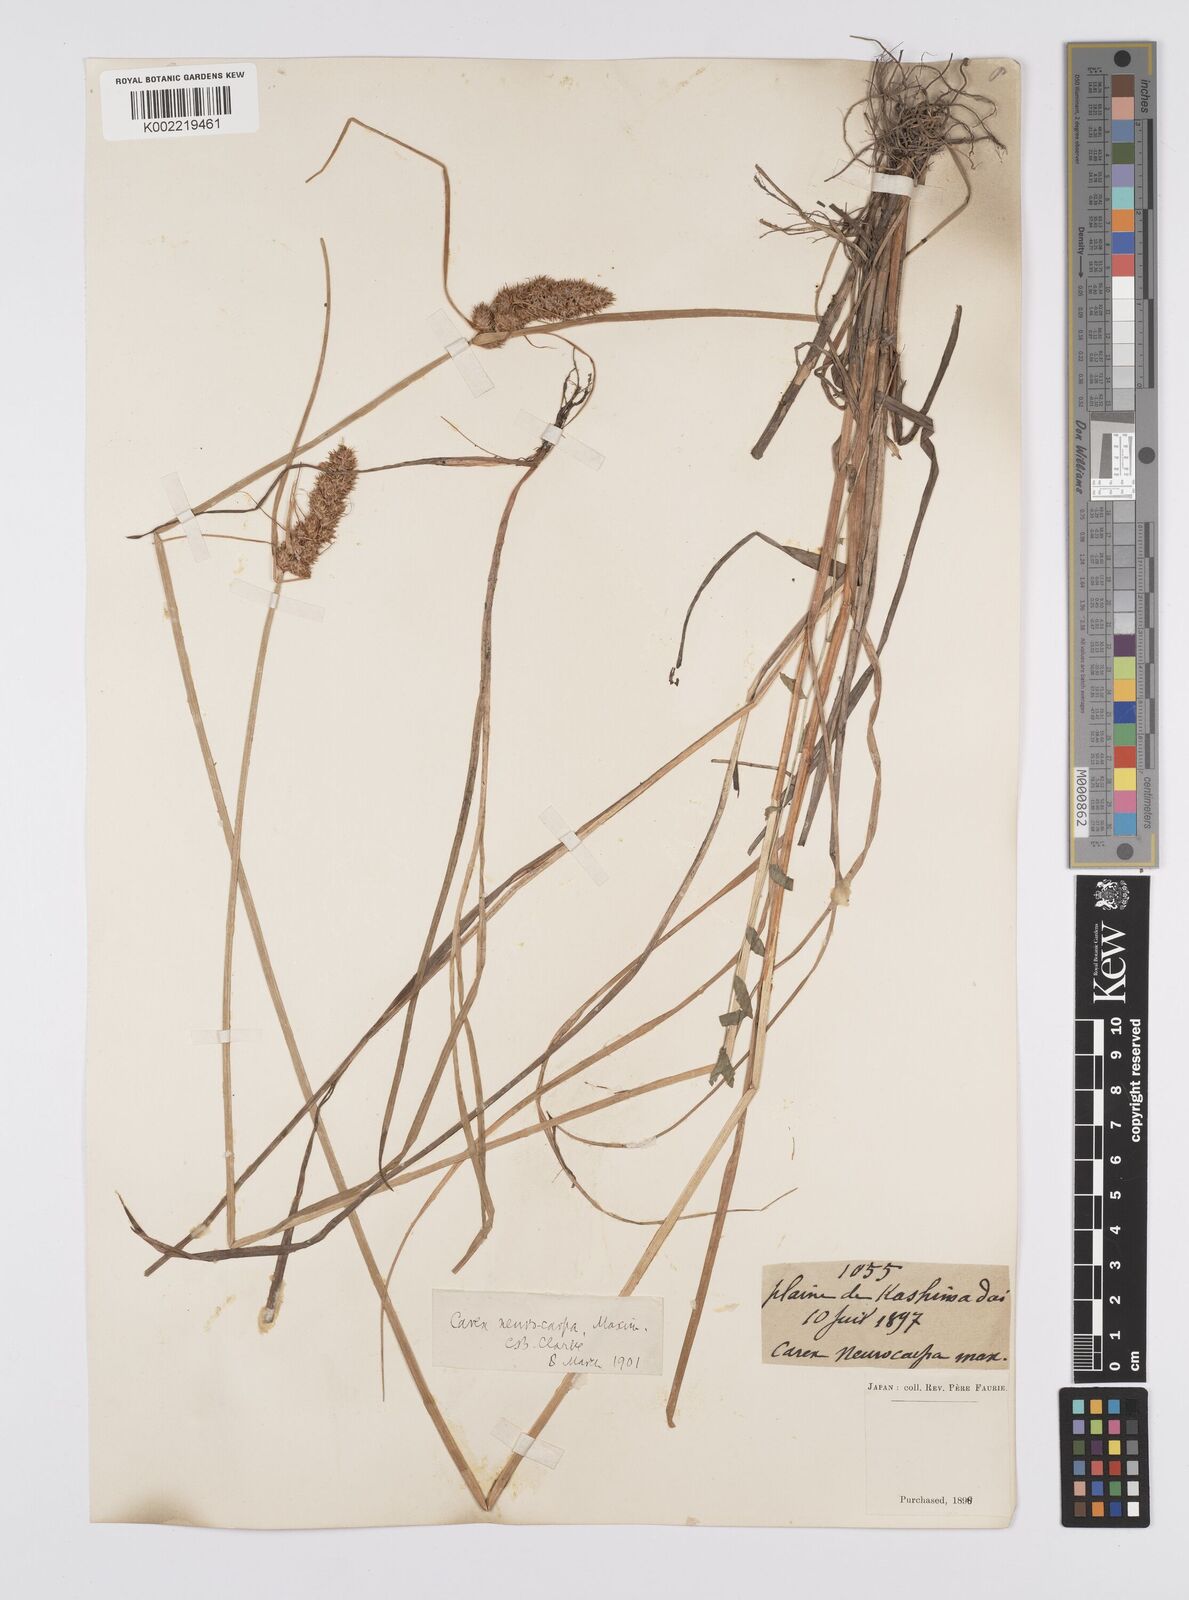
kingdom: Plantae
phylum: Tracheophyta
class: Liliopsida
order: Poales
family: Cyperaceae
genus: Carex
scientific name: Carex neurocarpa
